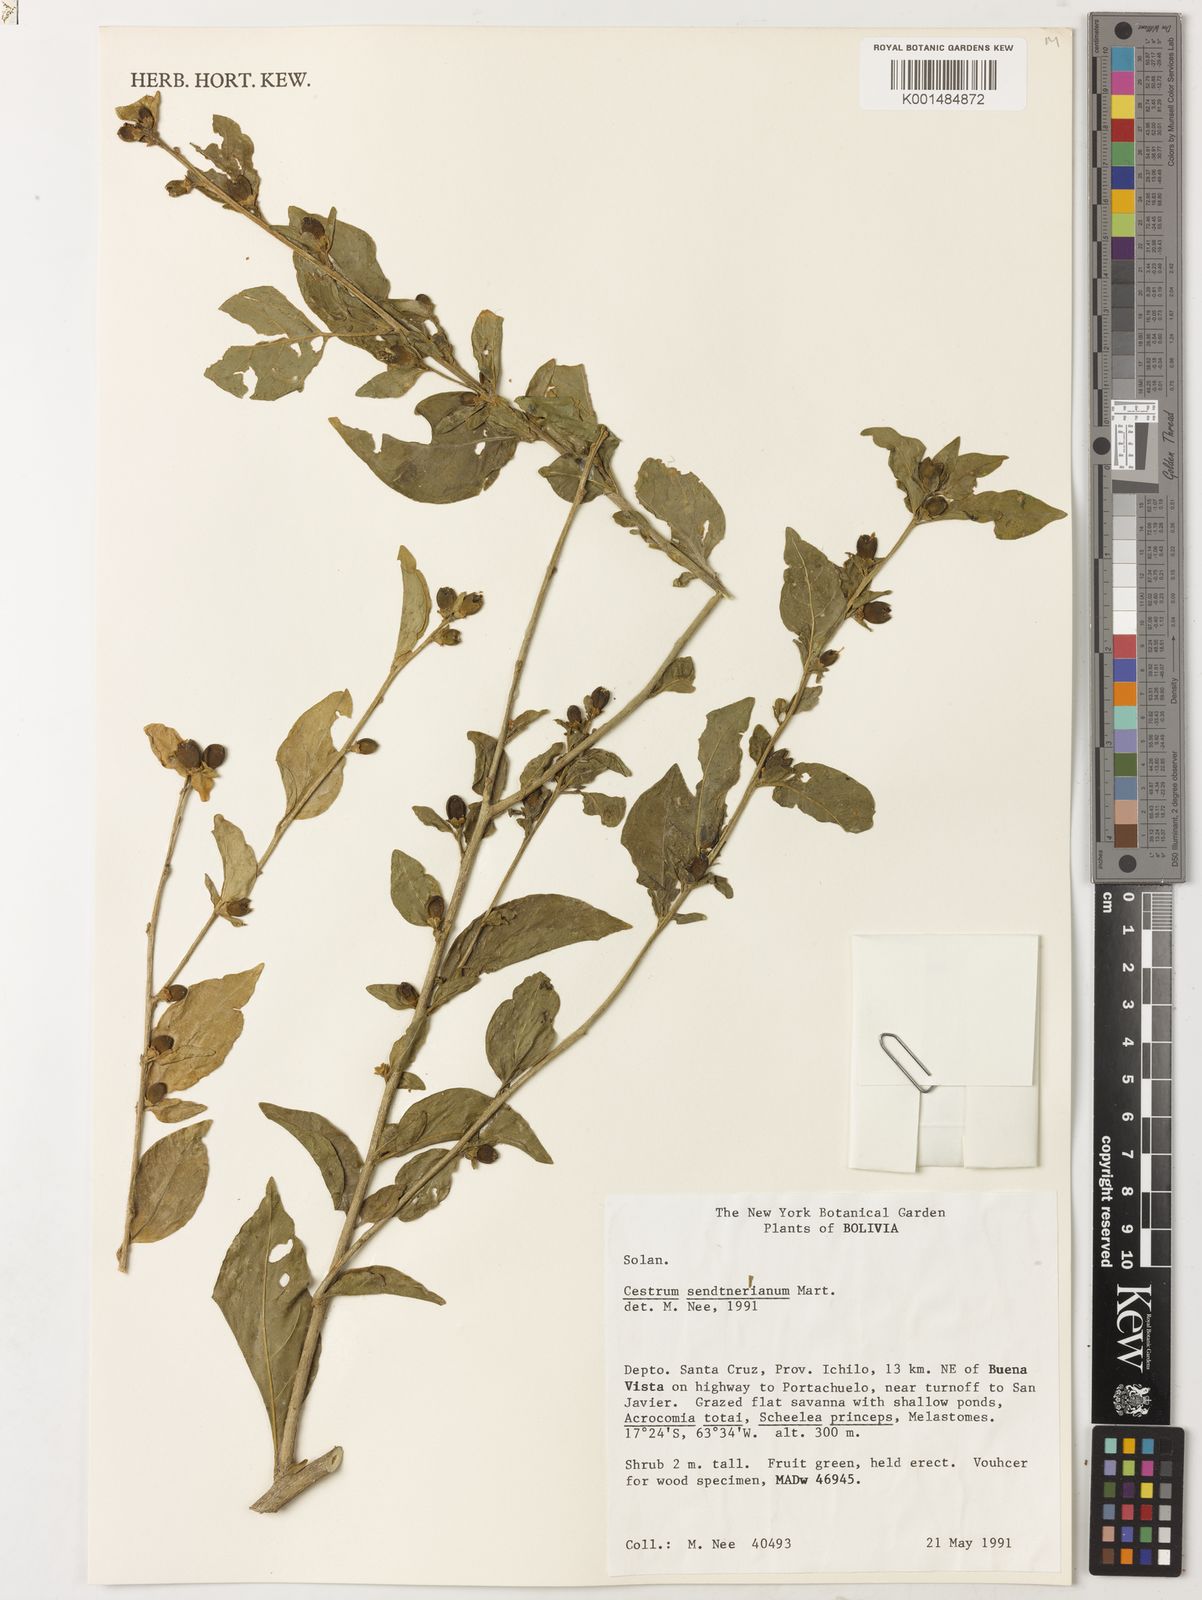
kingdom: Plantae
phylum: Tracheophyta
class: Magnoliopsida
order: Solanales
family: Solanaceae
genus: Cestrum
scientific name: Cestrum mariquitense
